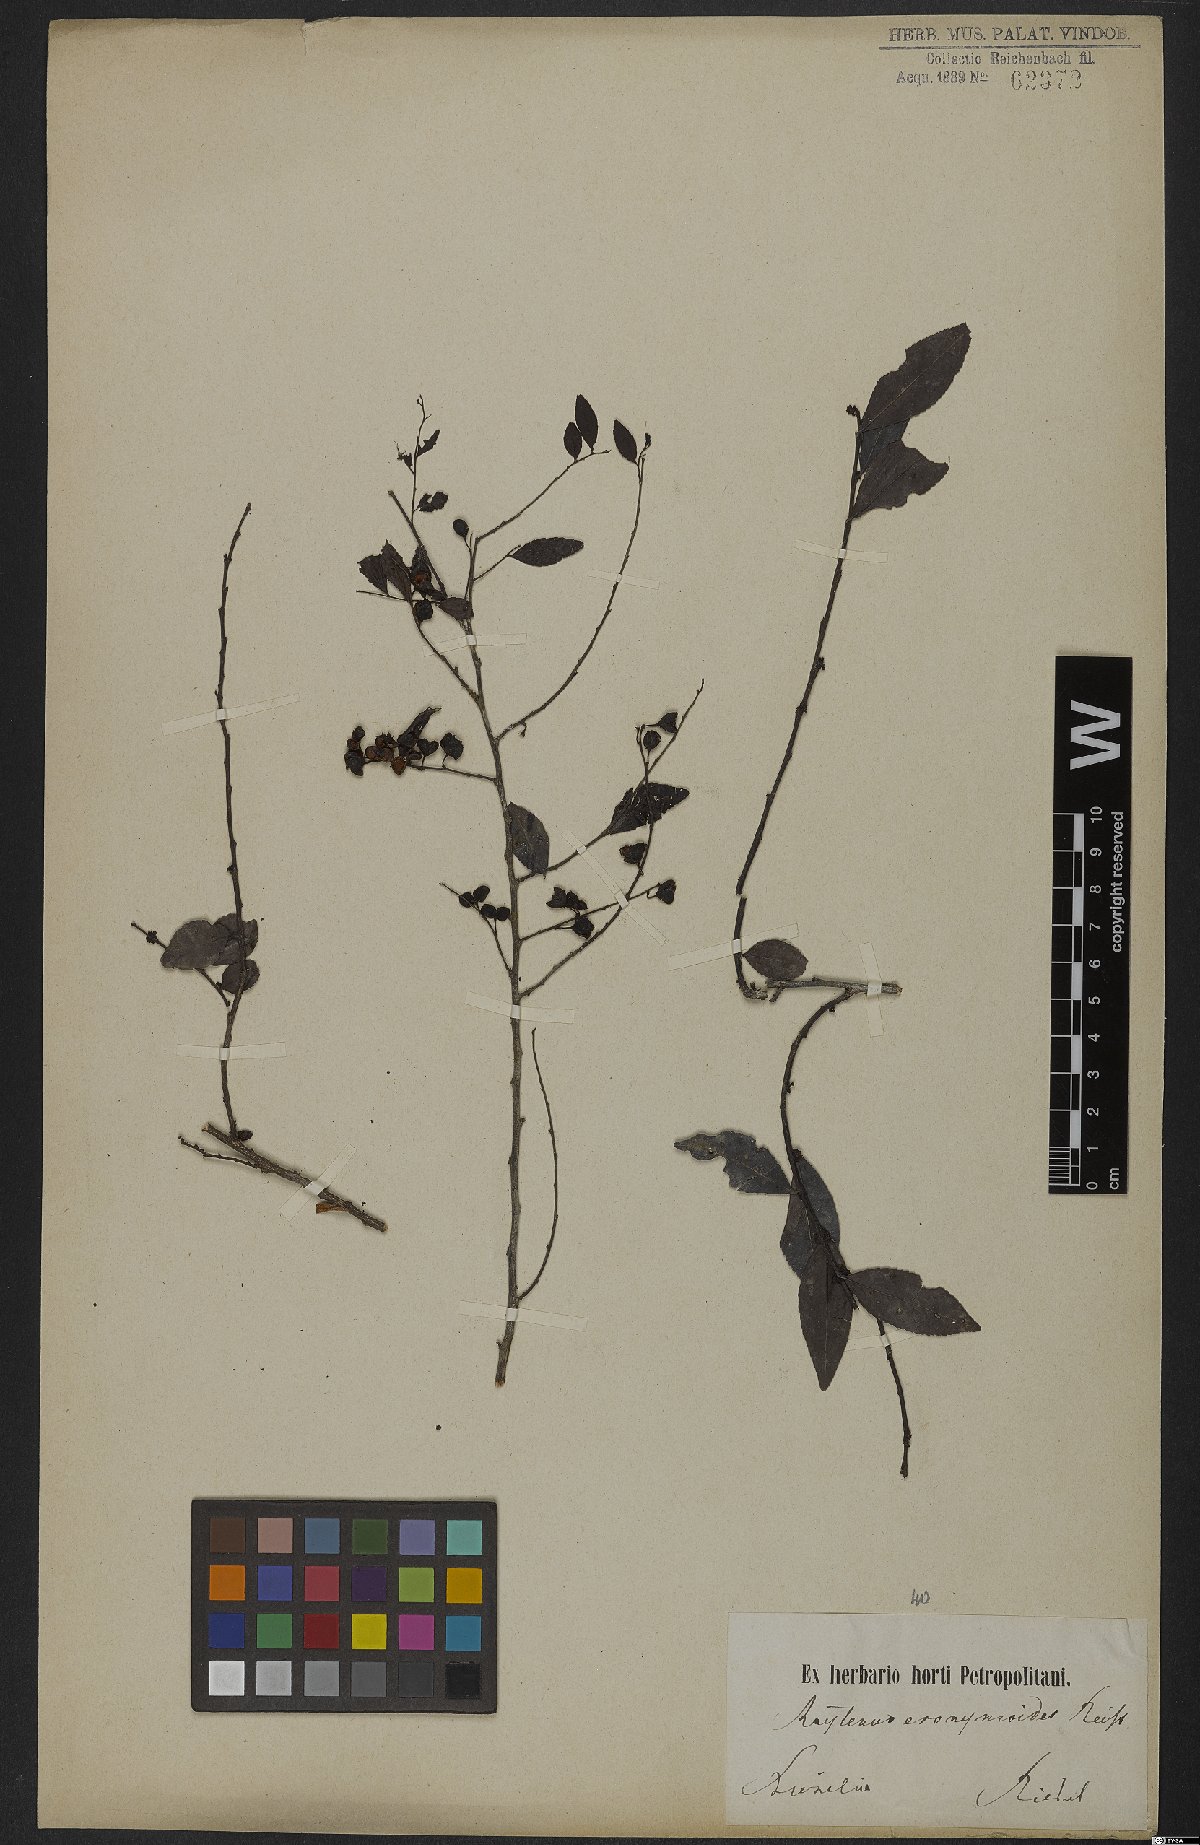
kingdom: Plantae
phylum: Tracheophyta
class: Magnoliopsida
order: Celastrales
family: Celastraceae
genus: Monteverdia
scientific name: Monteverdia evonymoides
